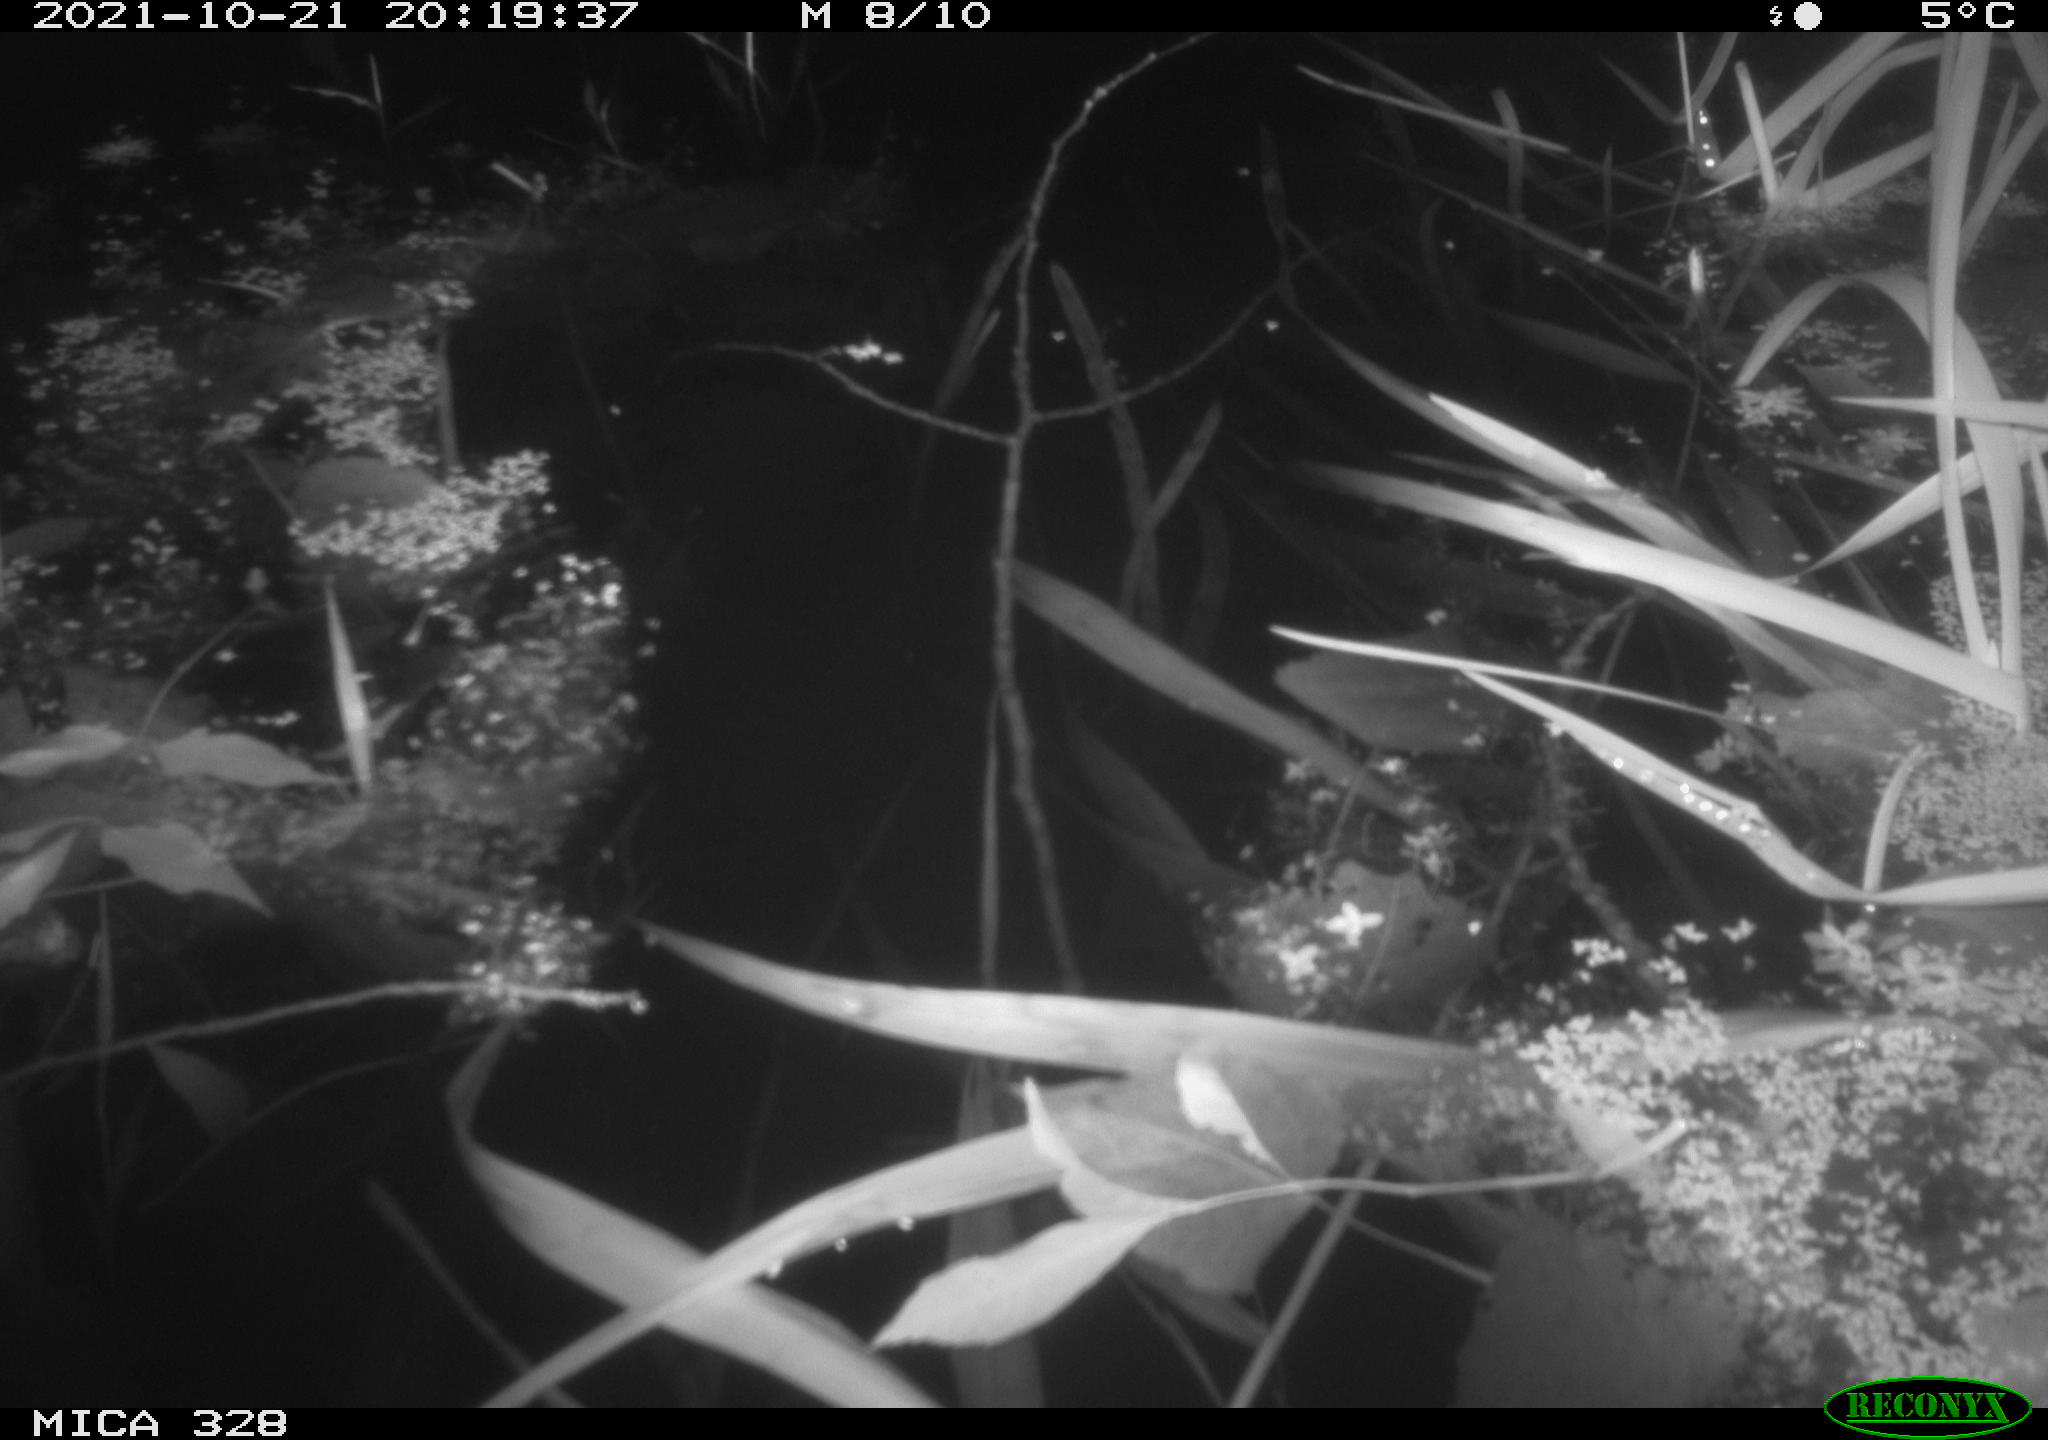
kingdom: Animalia
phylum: Chordata
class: Mammalia
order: Rodentia
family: Muridae
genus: Rattus
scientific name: Rattus norvegicus
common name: Brown rat
